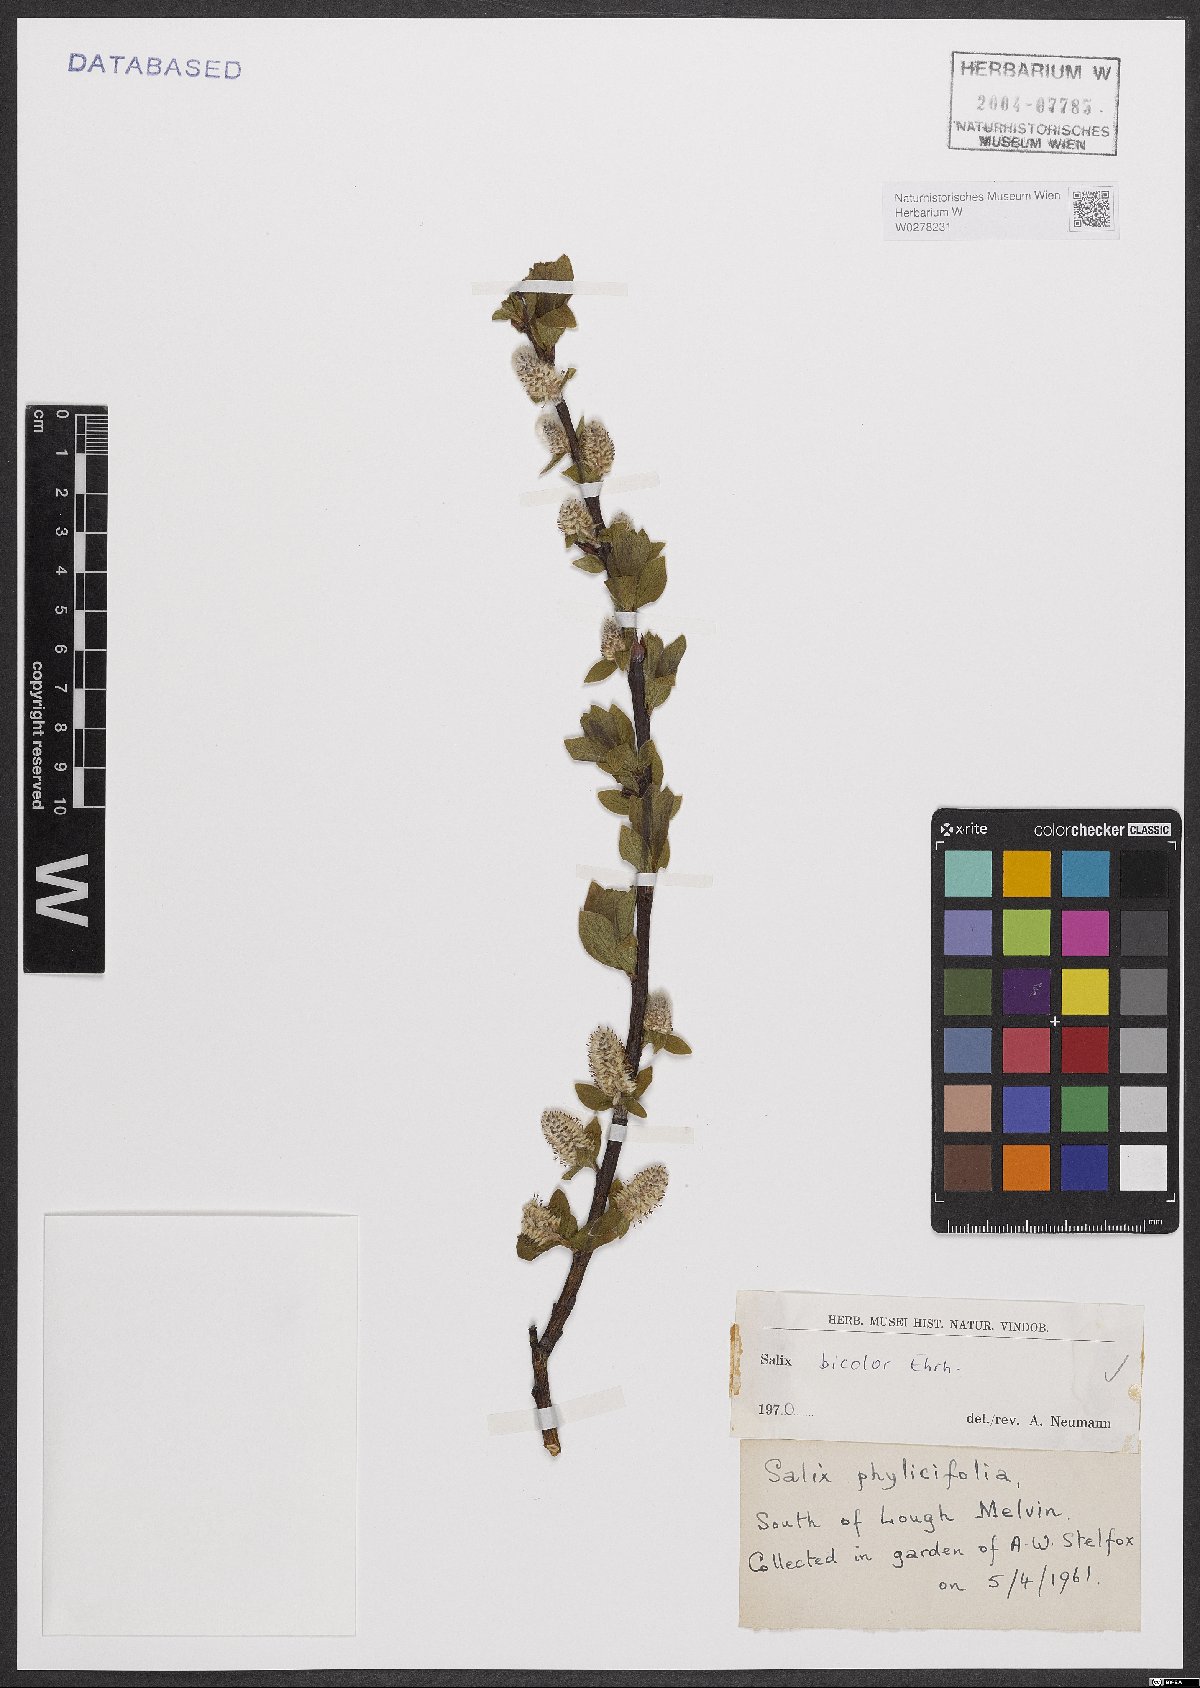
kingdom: Plantae
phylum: Tracheophyta
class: Magnoliopsida
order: Malpighiales
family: Salicaceae
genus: Salix
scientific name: Salix bicolor
